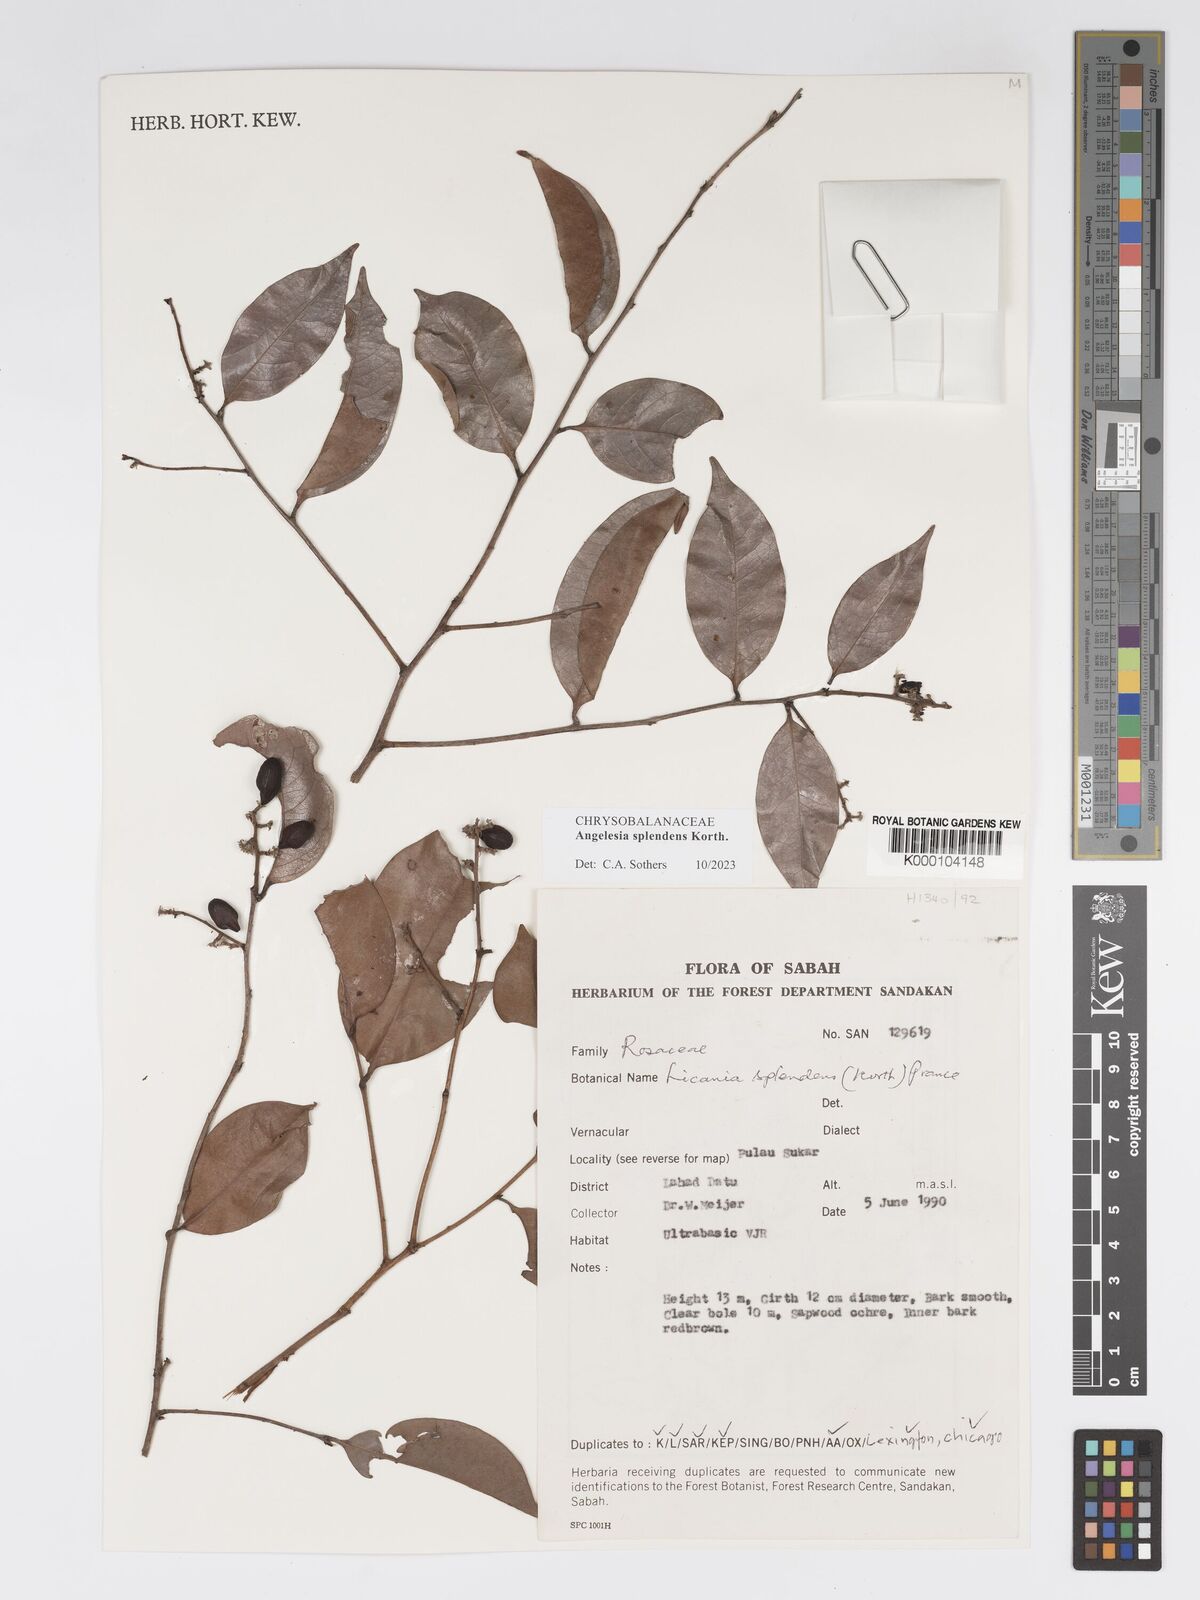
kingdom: Plantae
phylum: Tracheophyta
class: Magnoliopsida
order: Malpighiales
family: Chrysobalanaceae
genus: Angelesia
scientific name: Angelesia splendens
